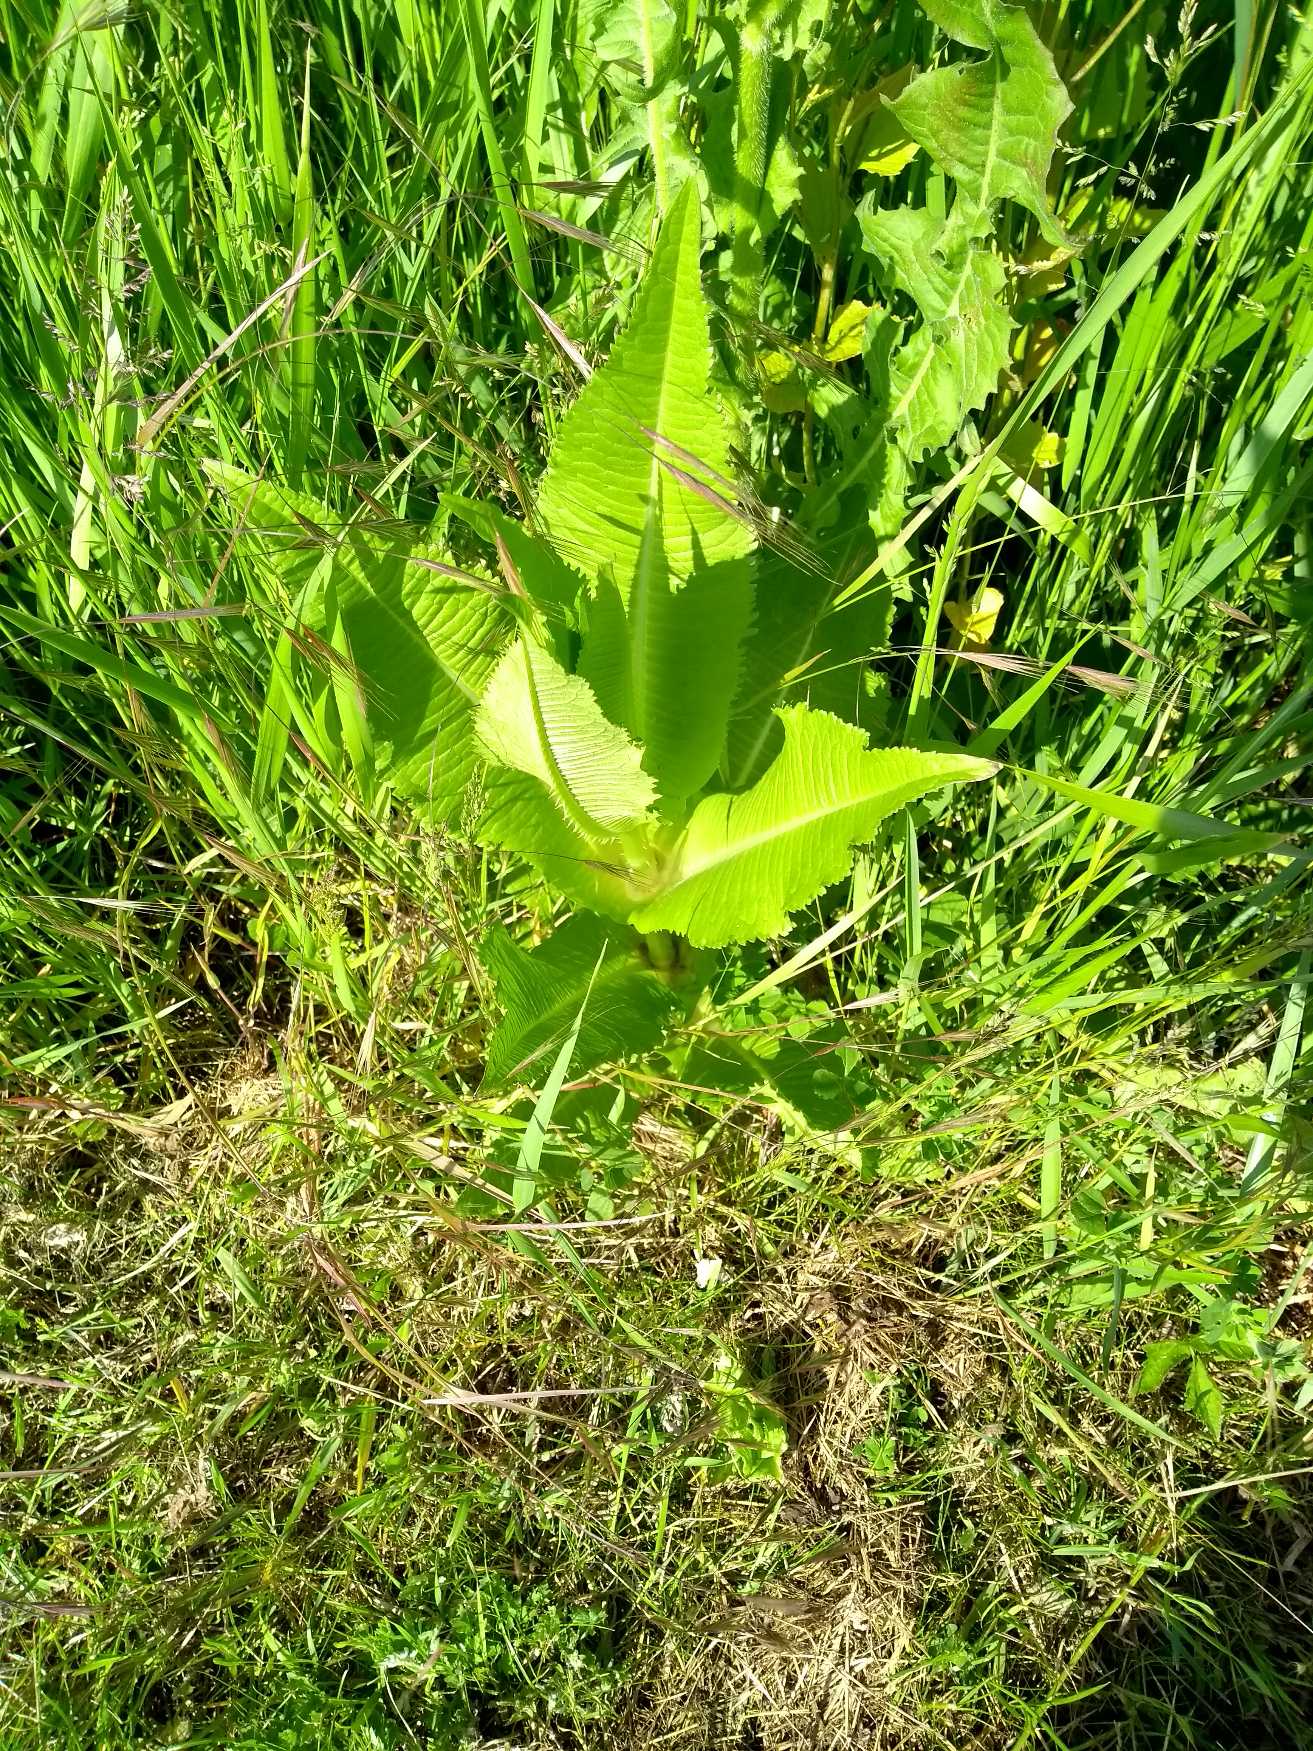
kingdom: Plantae
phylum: Tracheophyta
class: Magnoliopsida
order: Dipsacales
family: Caprifoliaceae
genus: Dipsacus
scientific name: Dipsacus fullonum
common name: Gærde-kartebolle
